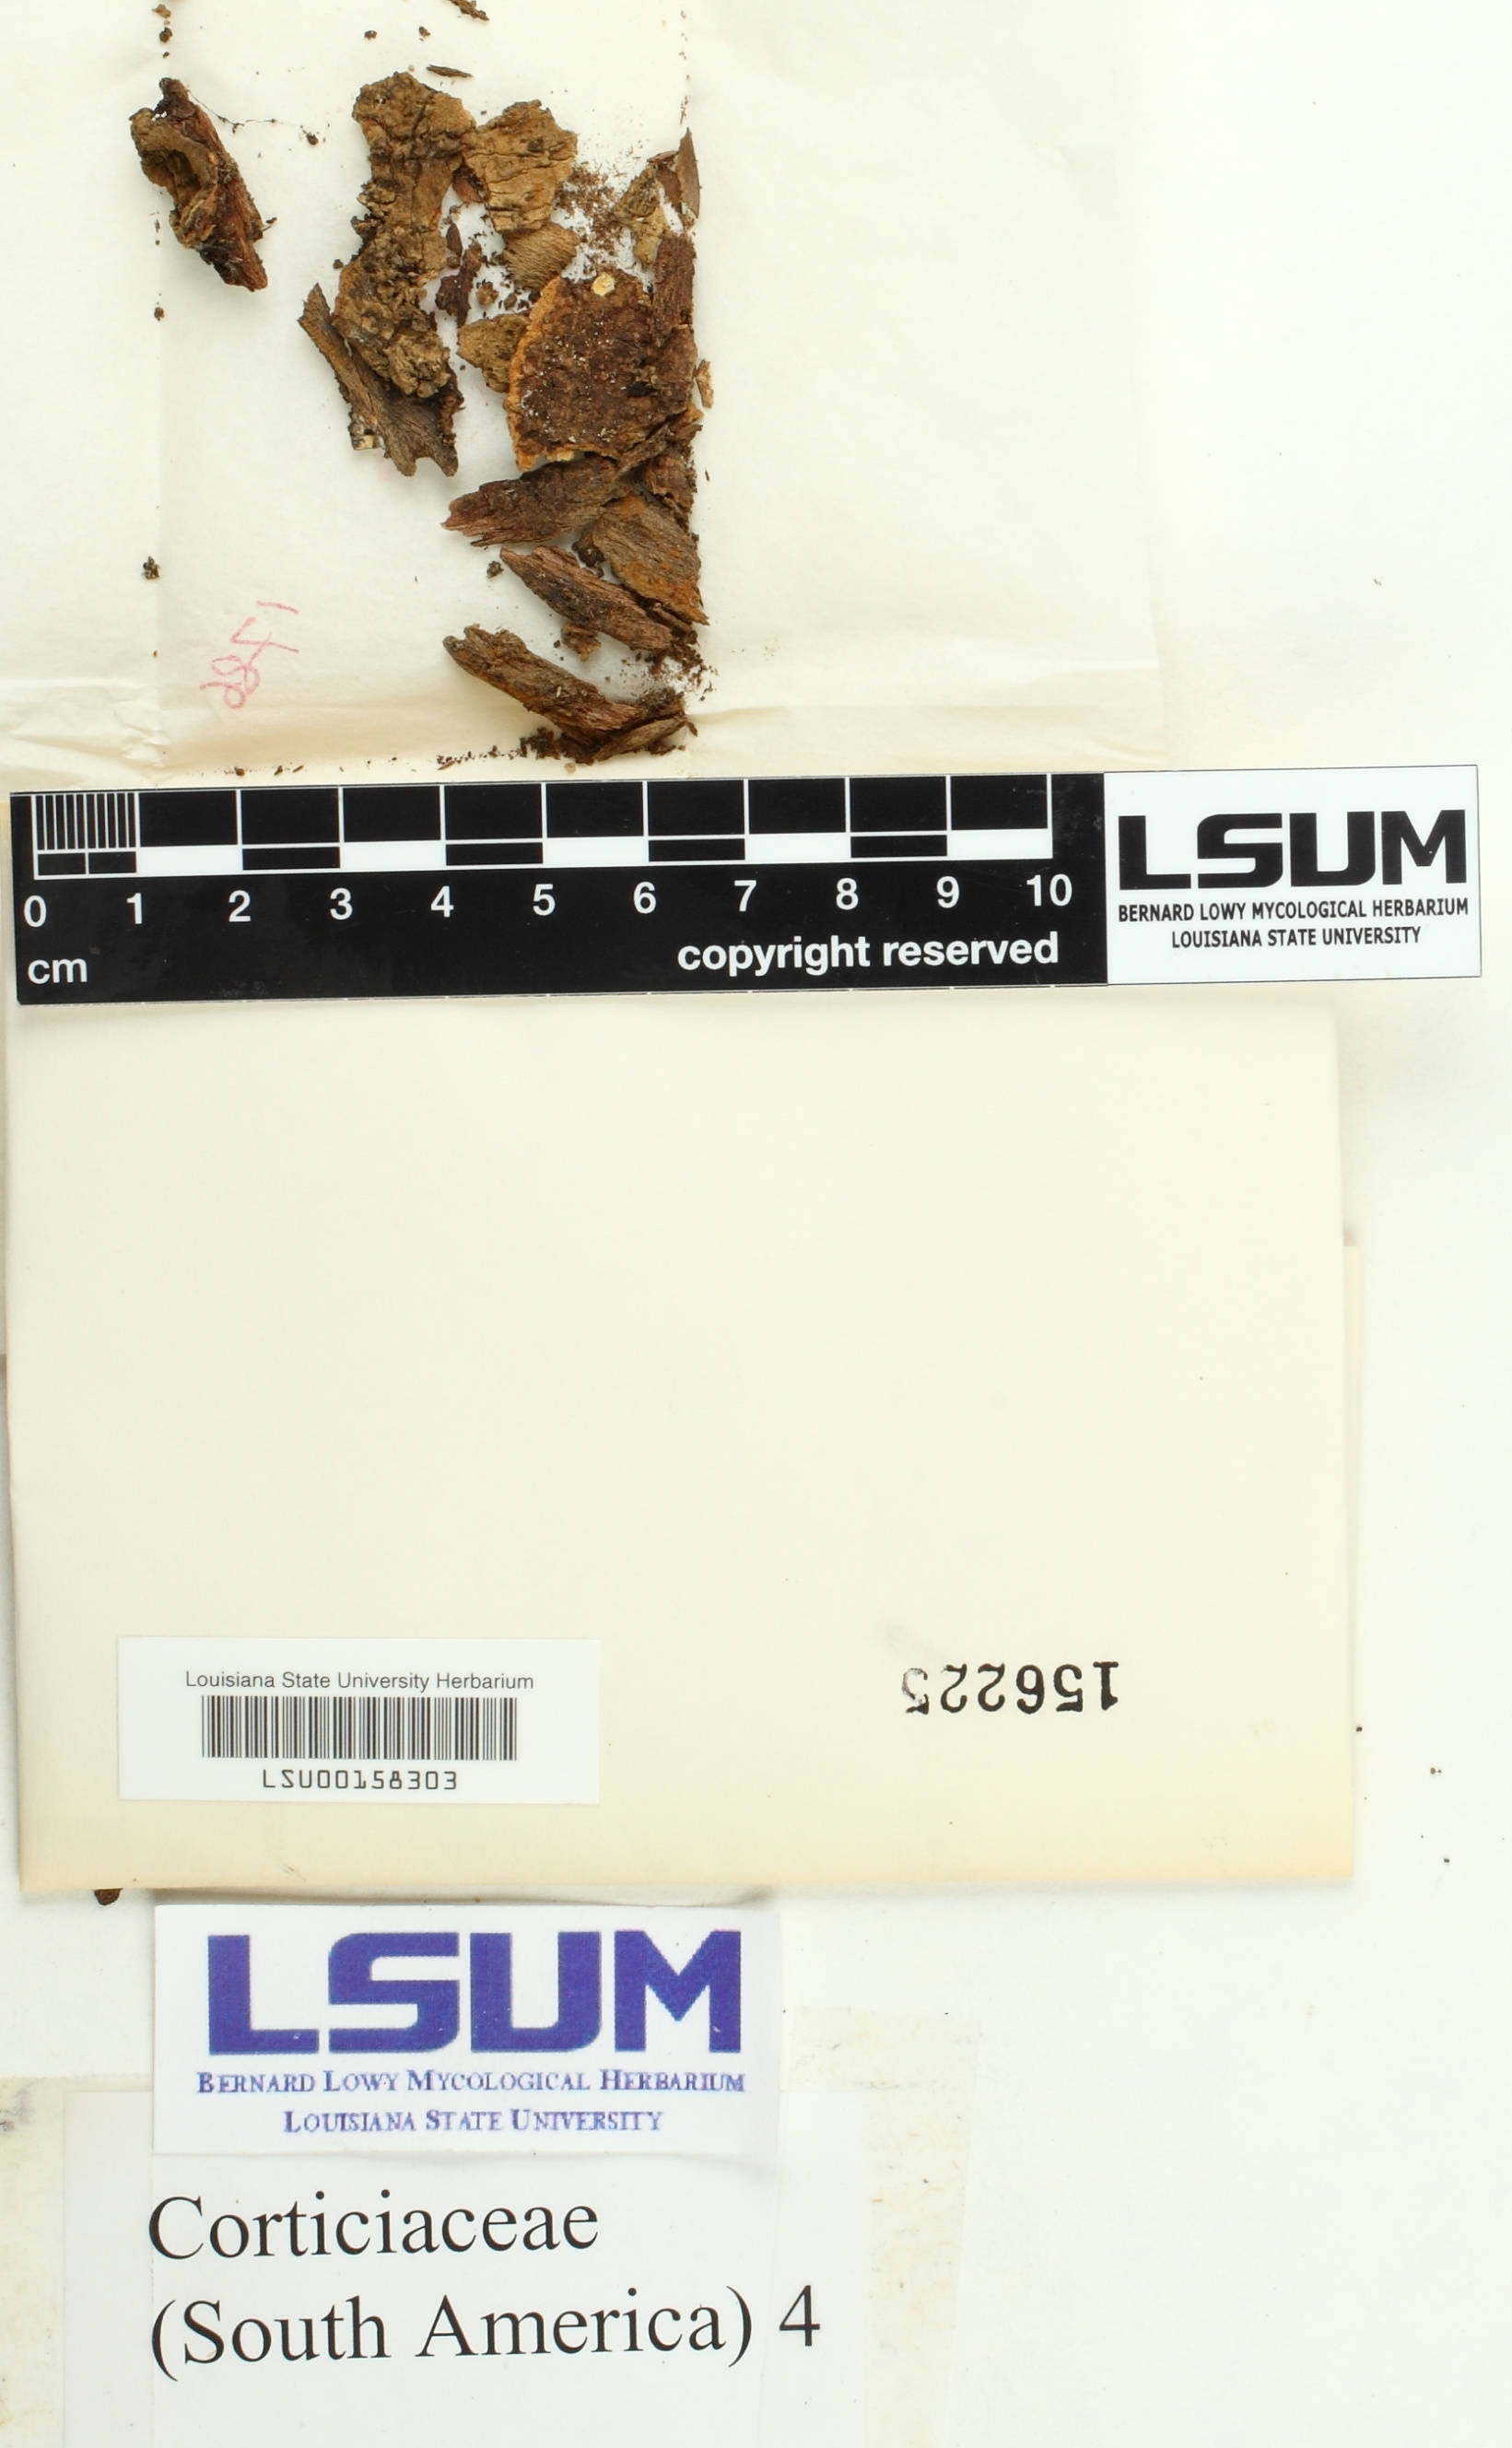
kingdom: Fungi
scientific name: Fungi
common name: Fungi
